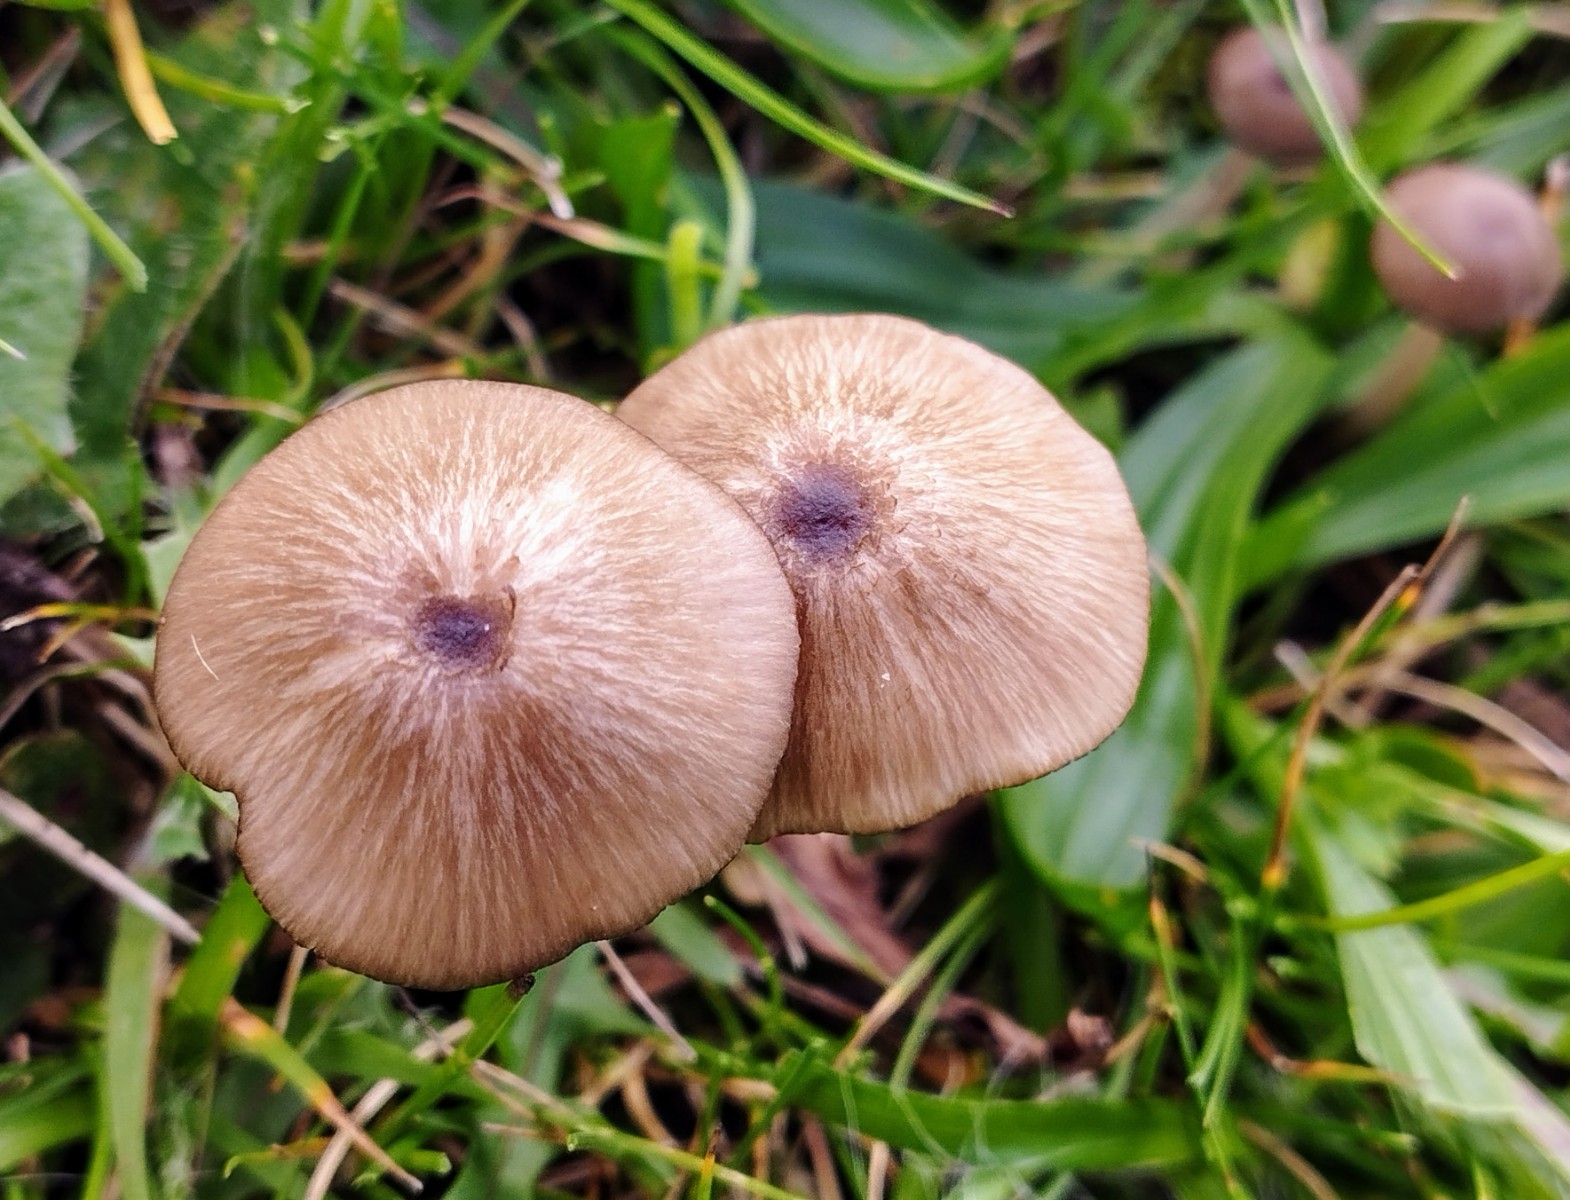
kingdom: Fungi
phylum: Basidiomycota
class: Agaricomycetes
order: Agaricales
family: Entolomataceae
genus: Entoloma
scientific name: Entoloma
